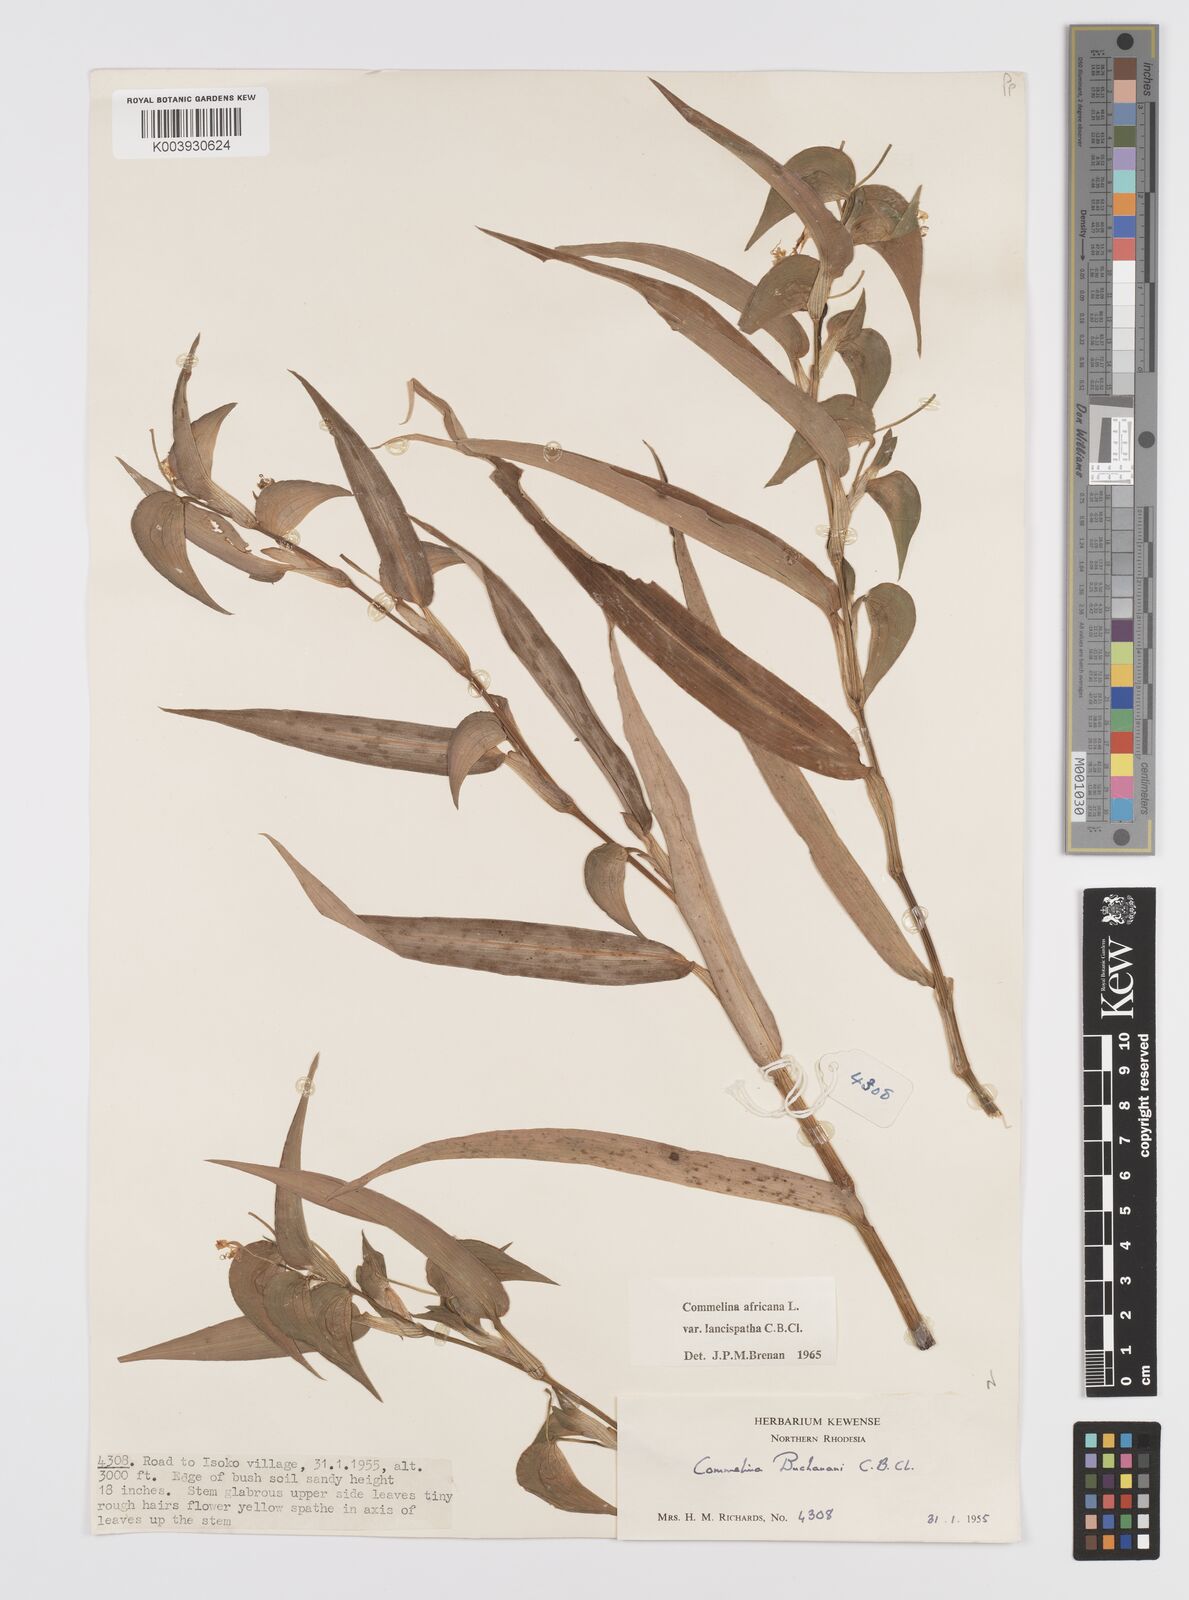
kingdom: Plantae
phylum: Tracheophyta
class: Liliopsida
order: Commelinales
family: Commelinaceae
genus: Commelina
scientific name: Commelina africana
